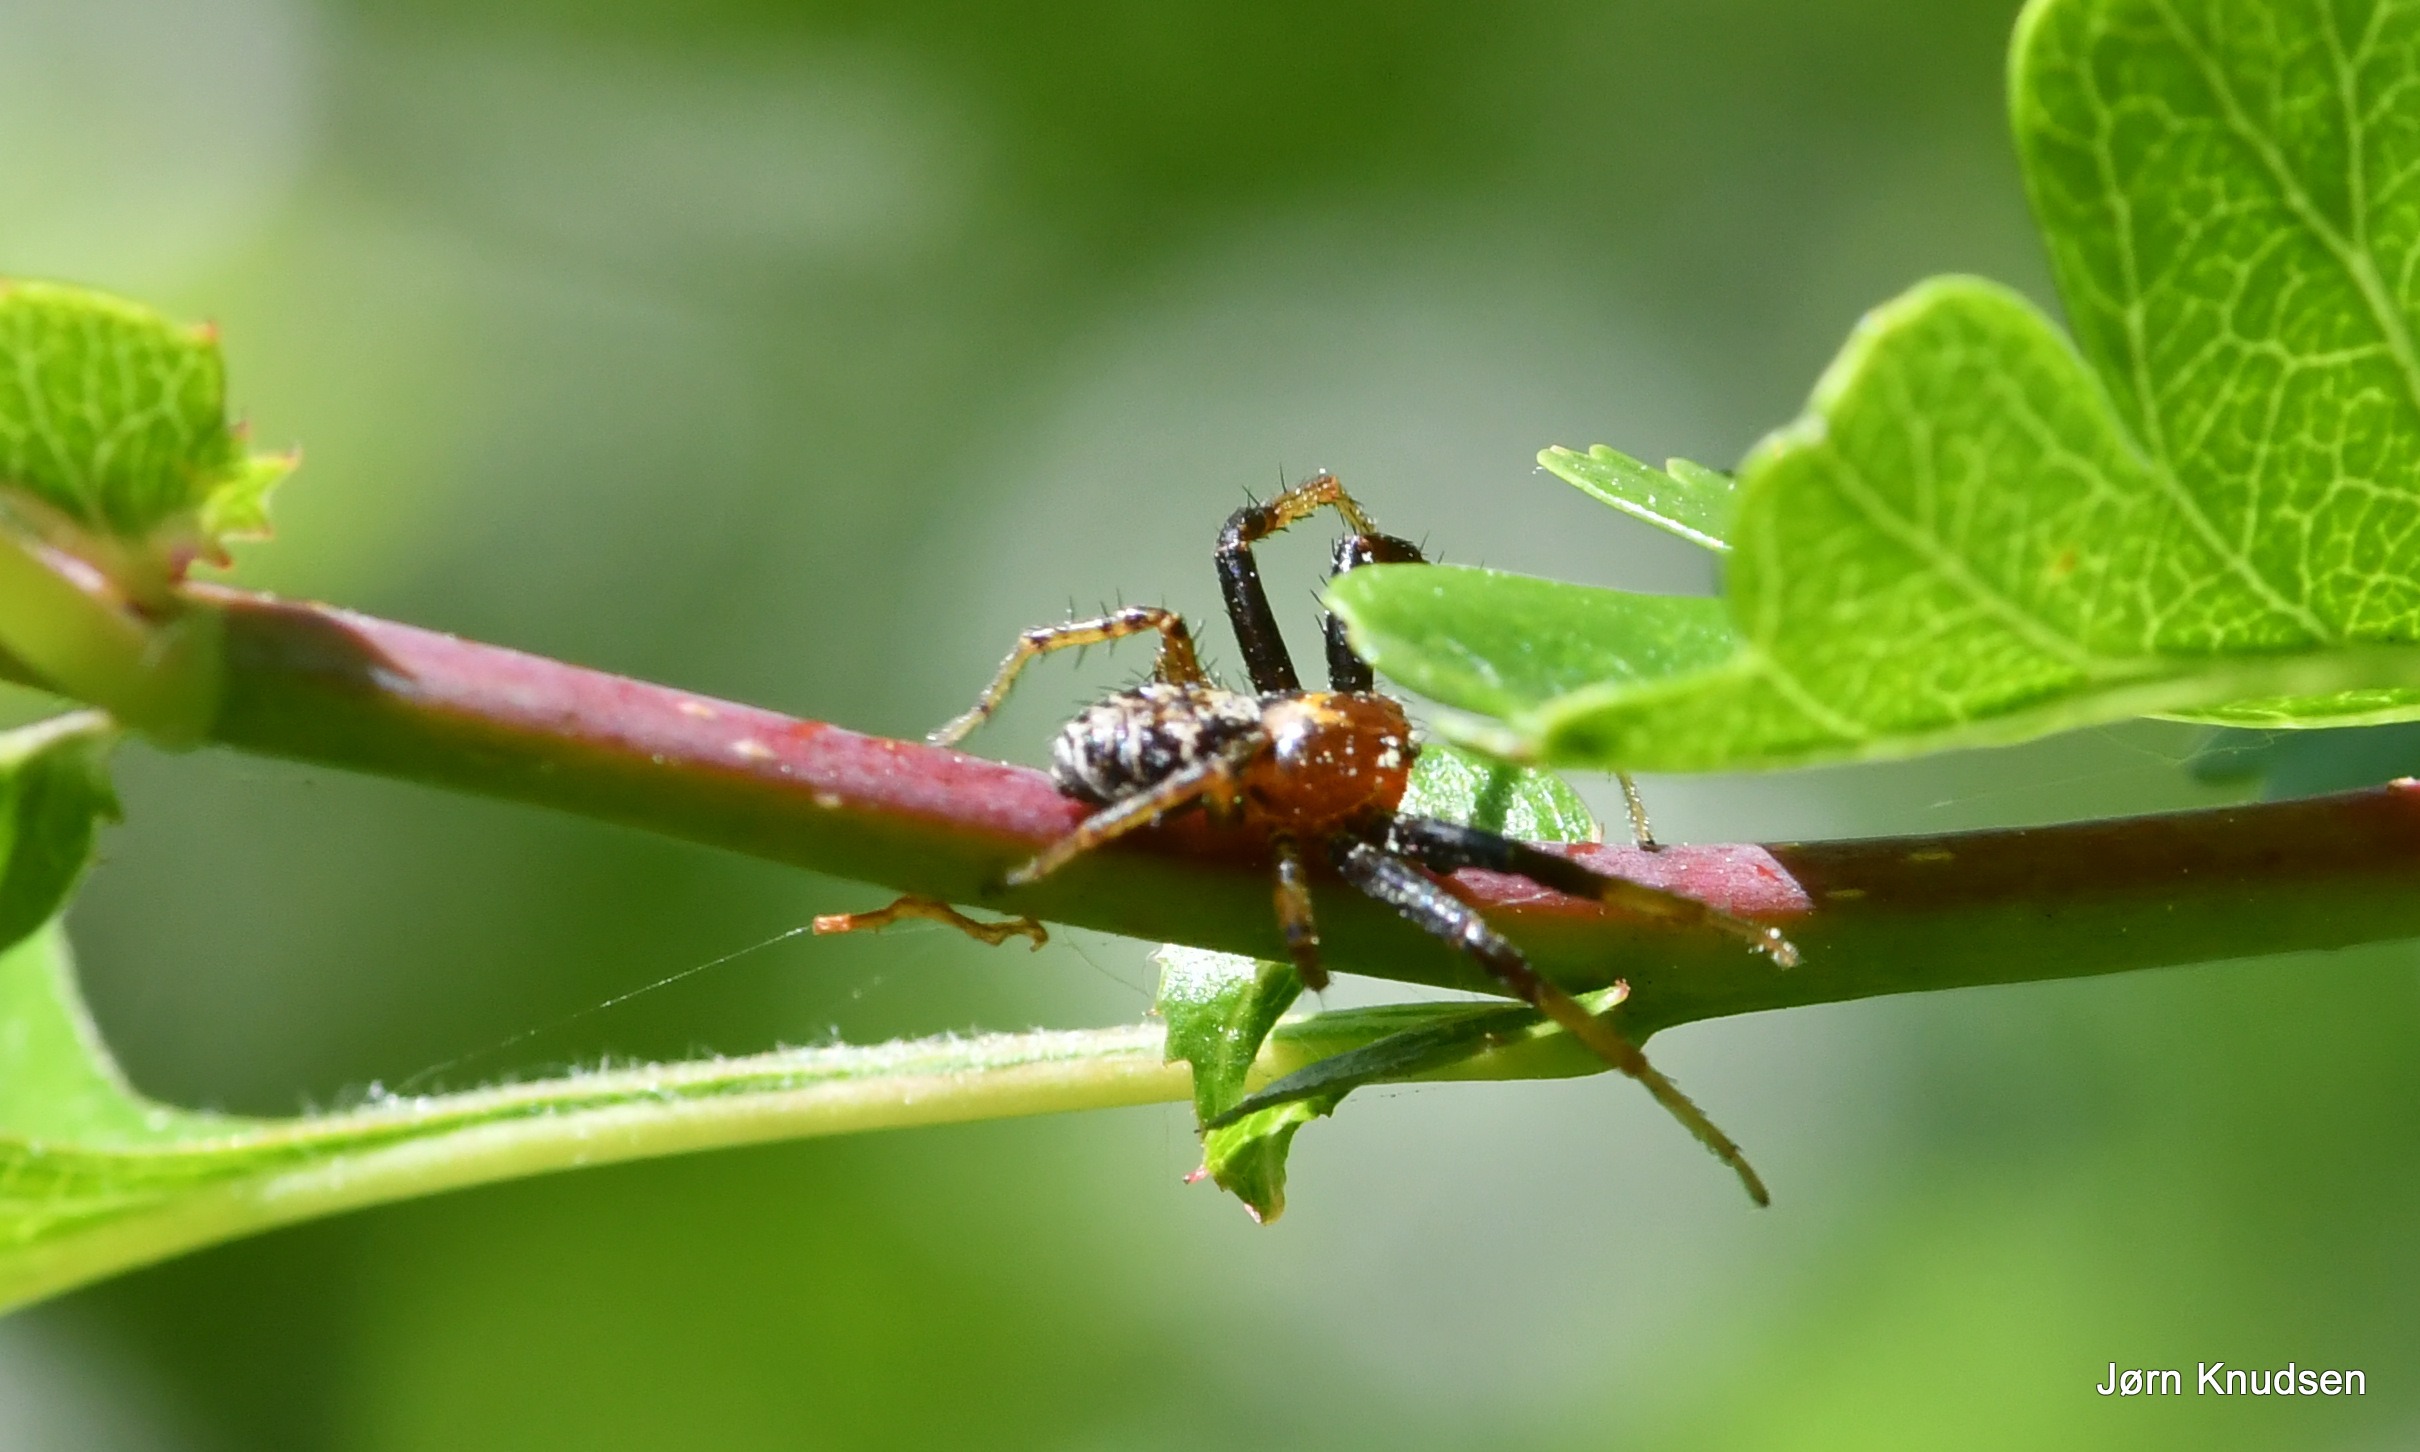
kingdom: Animalia
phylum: Arthropoda
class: Arachnida
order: Araneae
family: Thomisidae
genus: Xysticus
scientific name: Xysticus lanio
